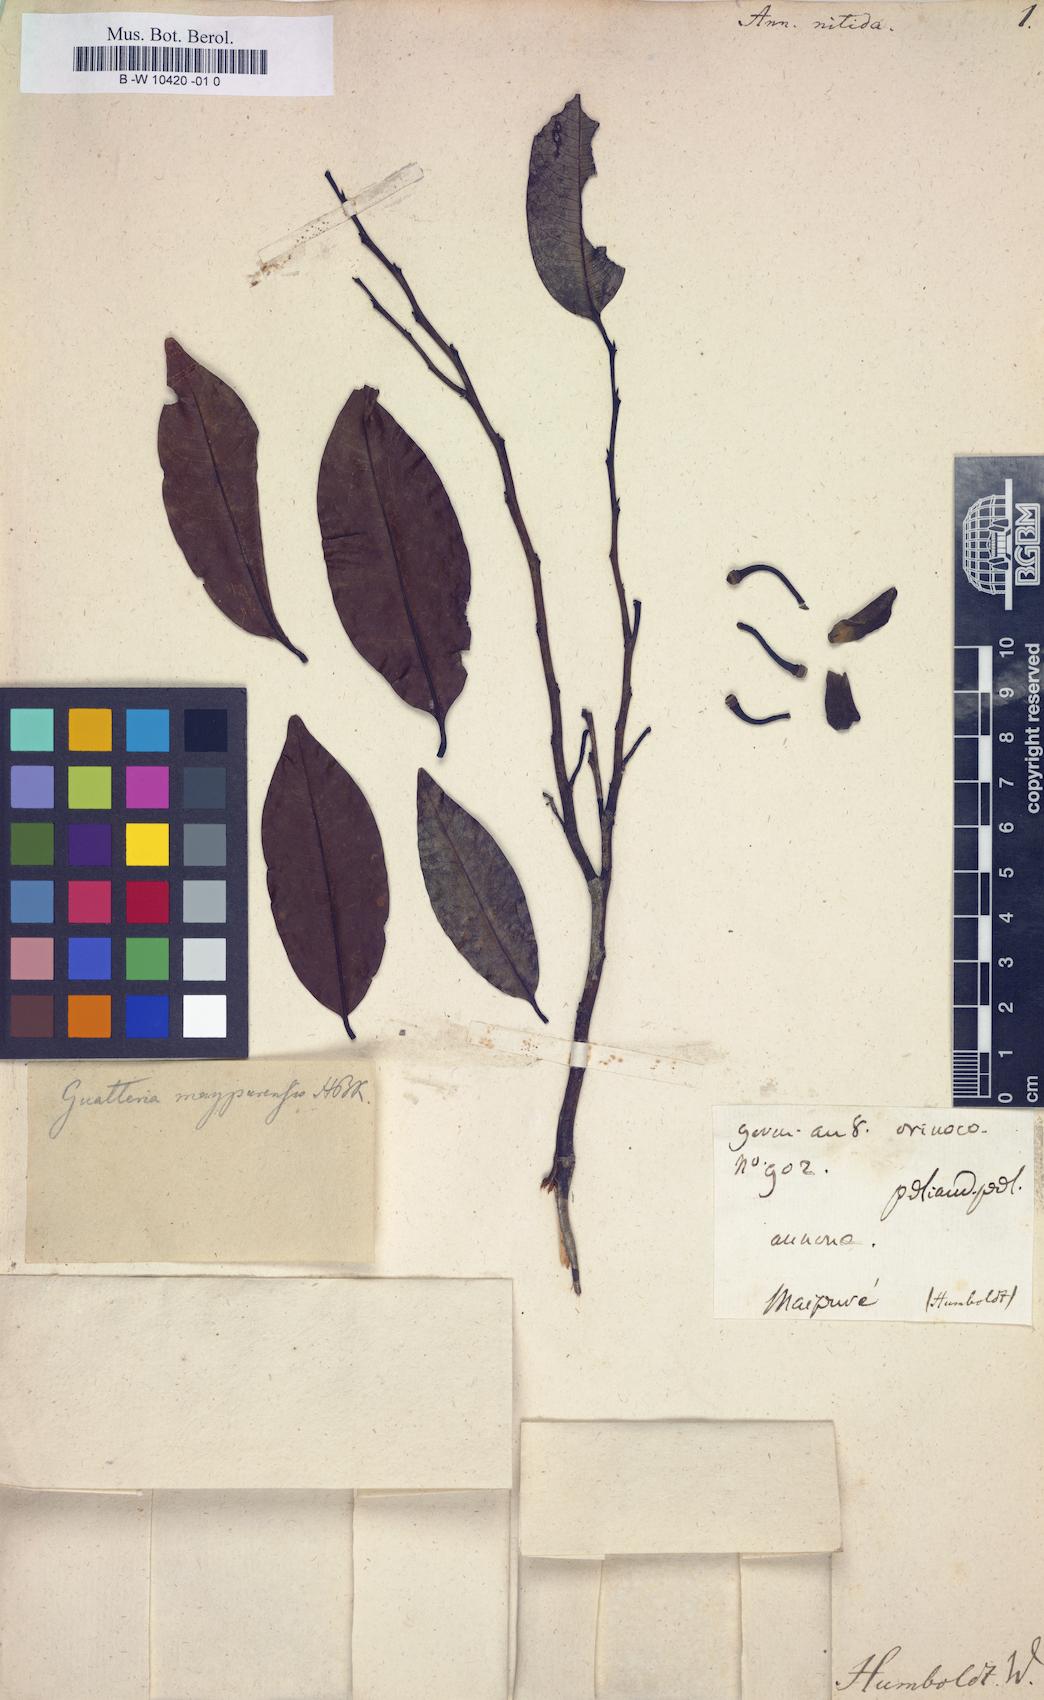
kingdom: Plantae
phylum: Tracheophyta
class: Magnoliopsida
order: Magnoliales
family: Annonaceae
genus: Guatteria
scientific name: Guatteria maypurensis
